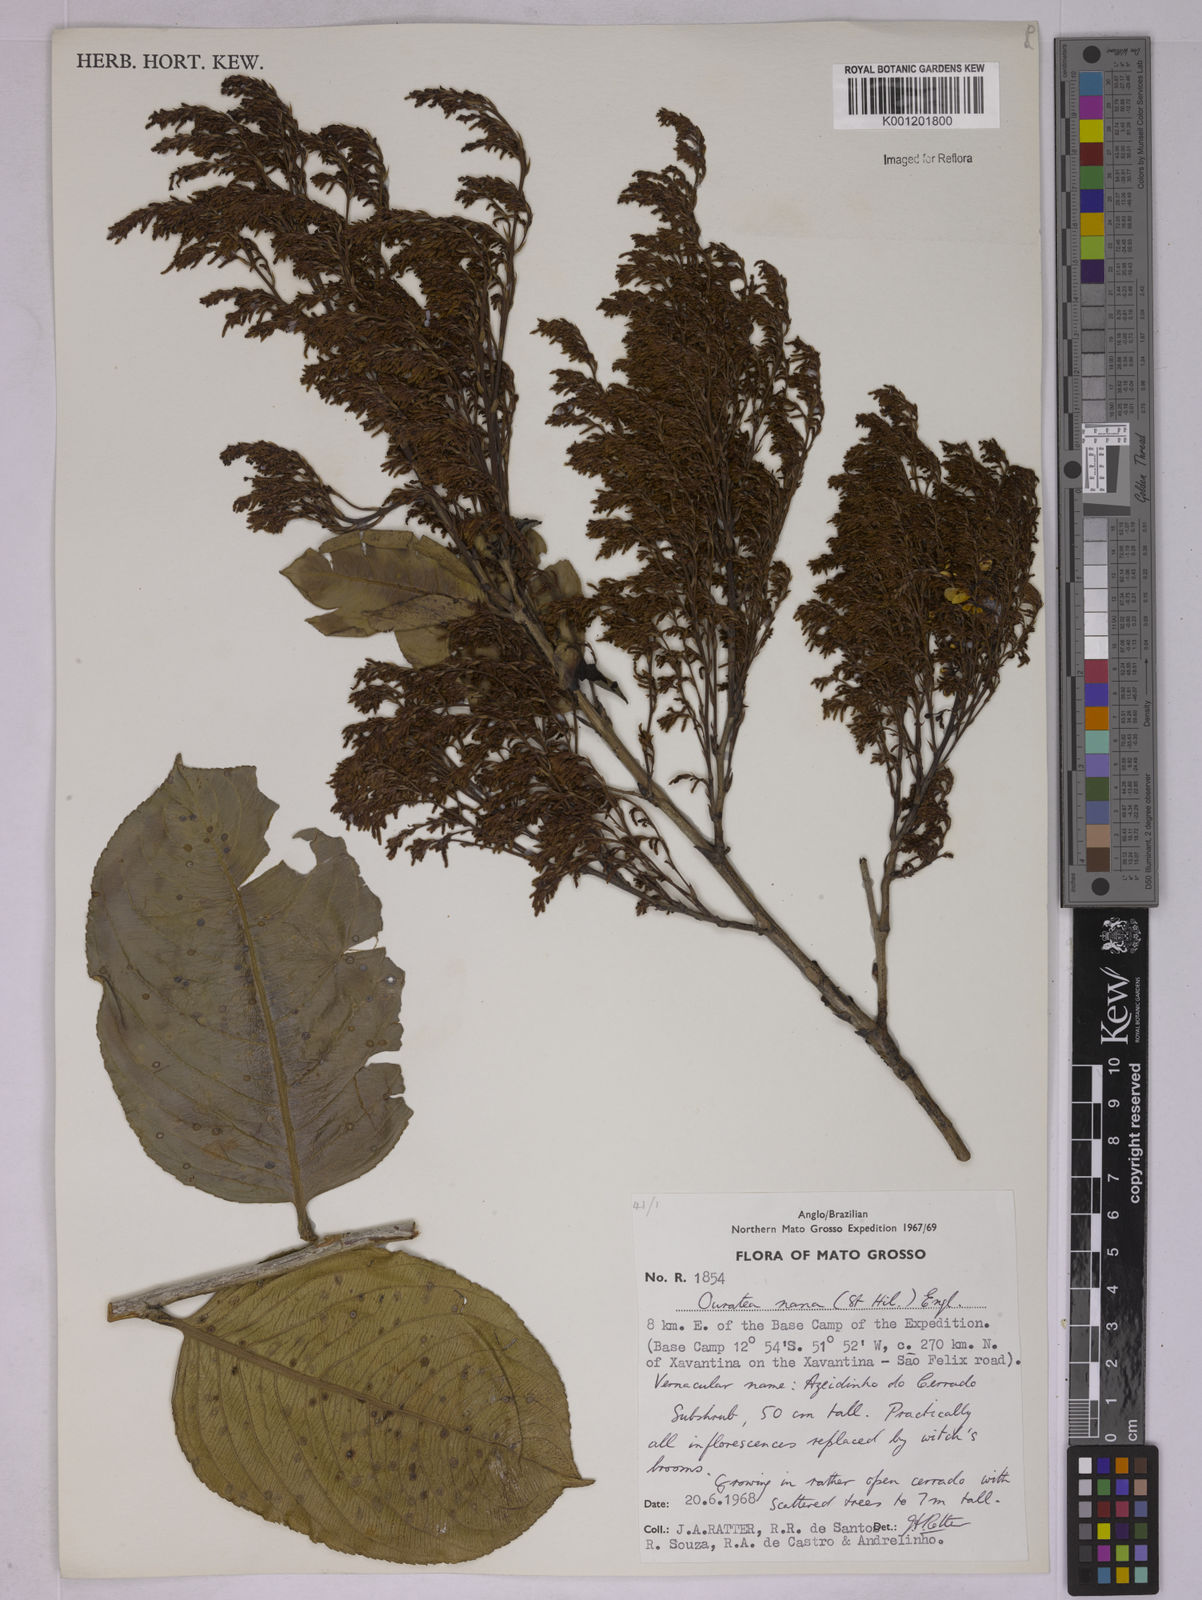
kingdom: Plantae
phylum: Tracheophyta
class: Magnoliopsida
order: Malpighiales
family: Ochnaceae
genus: Ouratea
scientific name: Ouratea nana
